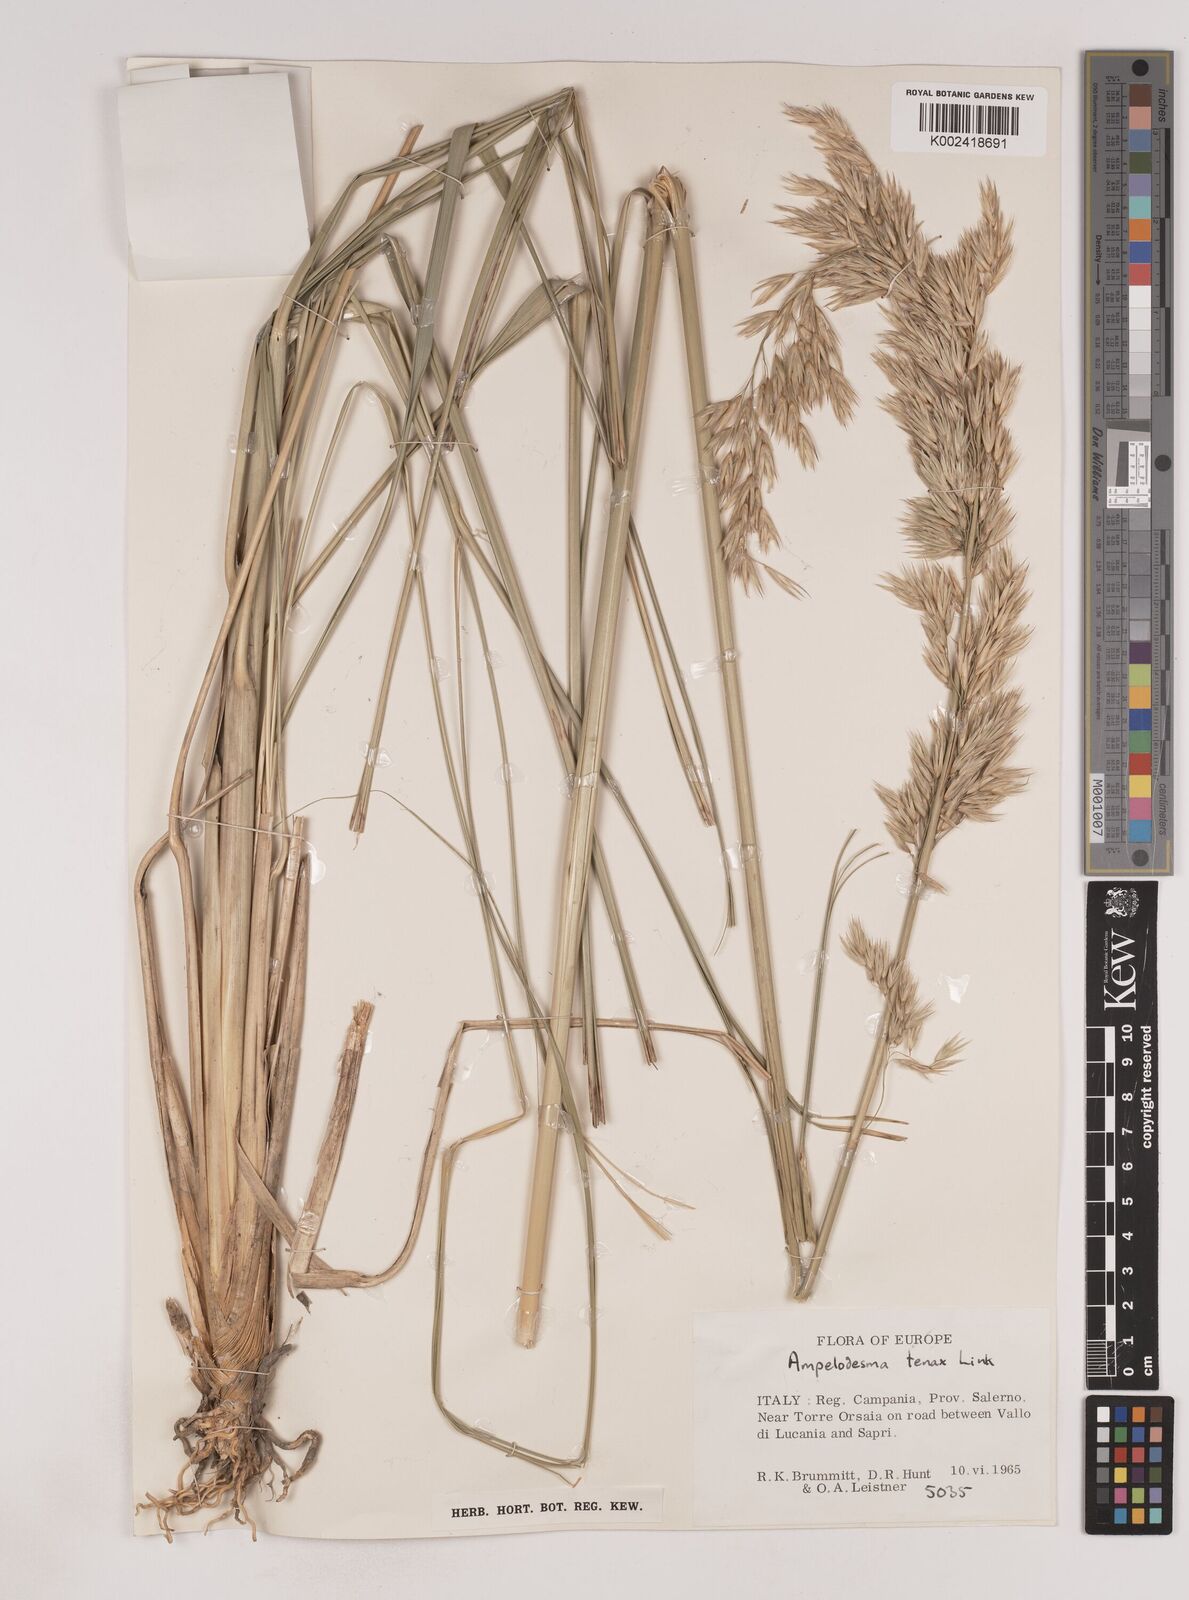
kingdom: Plantae
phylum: Tracheophyta
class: Liliopsida
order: Poales
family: Poaceae
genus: Ampelodesmos
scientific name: Ampelodesmos mauritanicus
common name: Mauritanian grass
